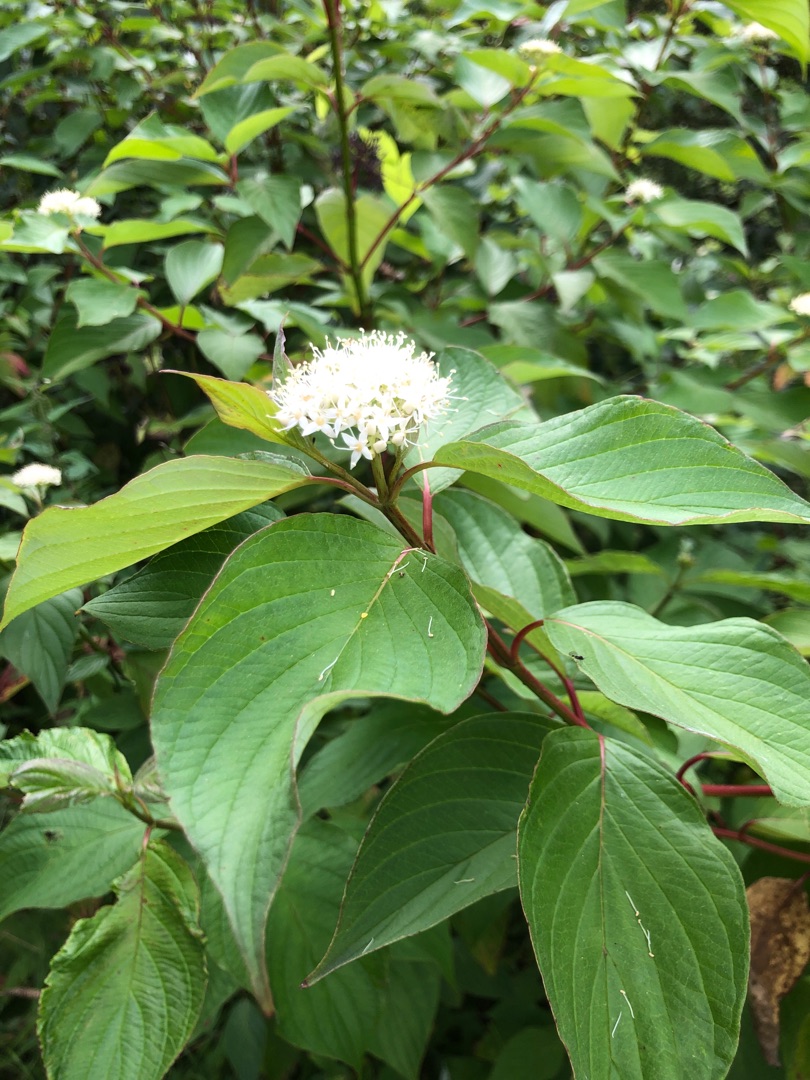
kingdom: Plantae
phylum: Tracheophyta
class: Magnoliopsida
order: Cornales
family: Cornaceae
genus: Cornus
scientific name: Cornus
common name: Kornelslægten
